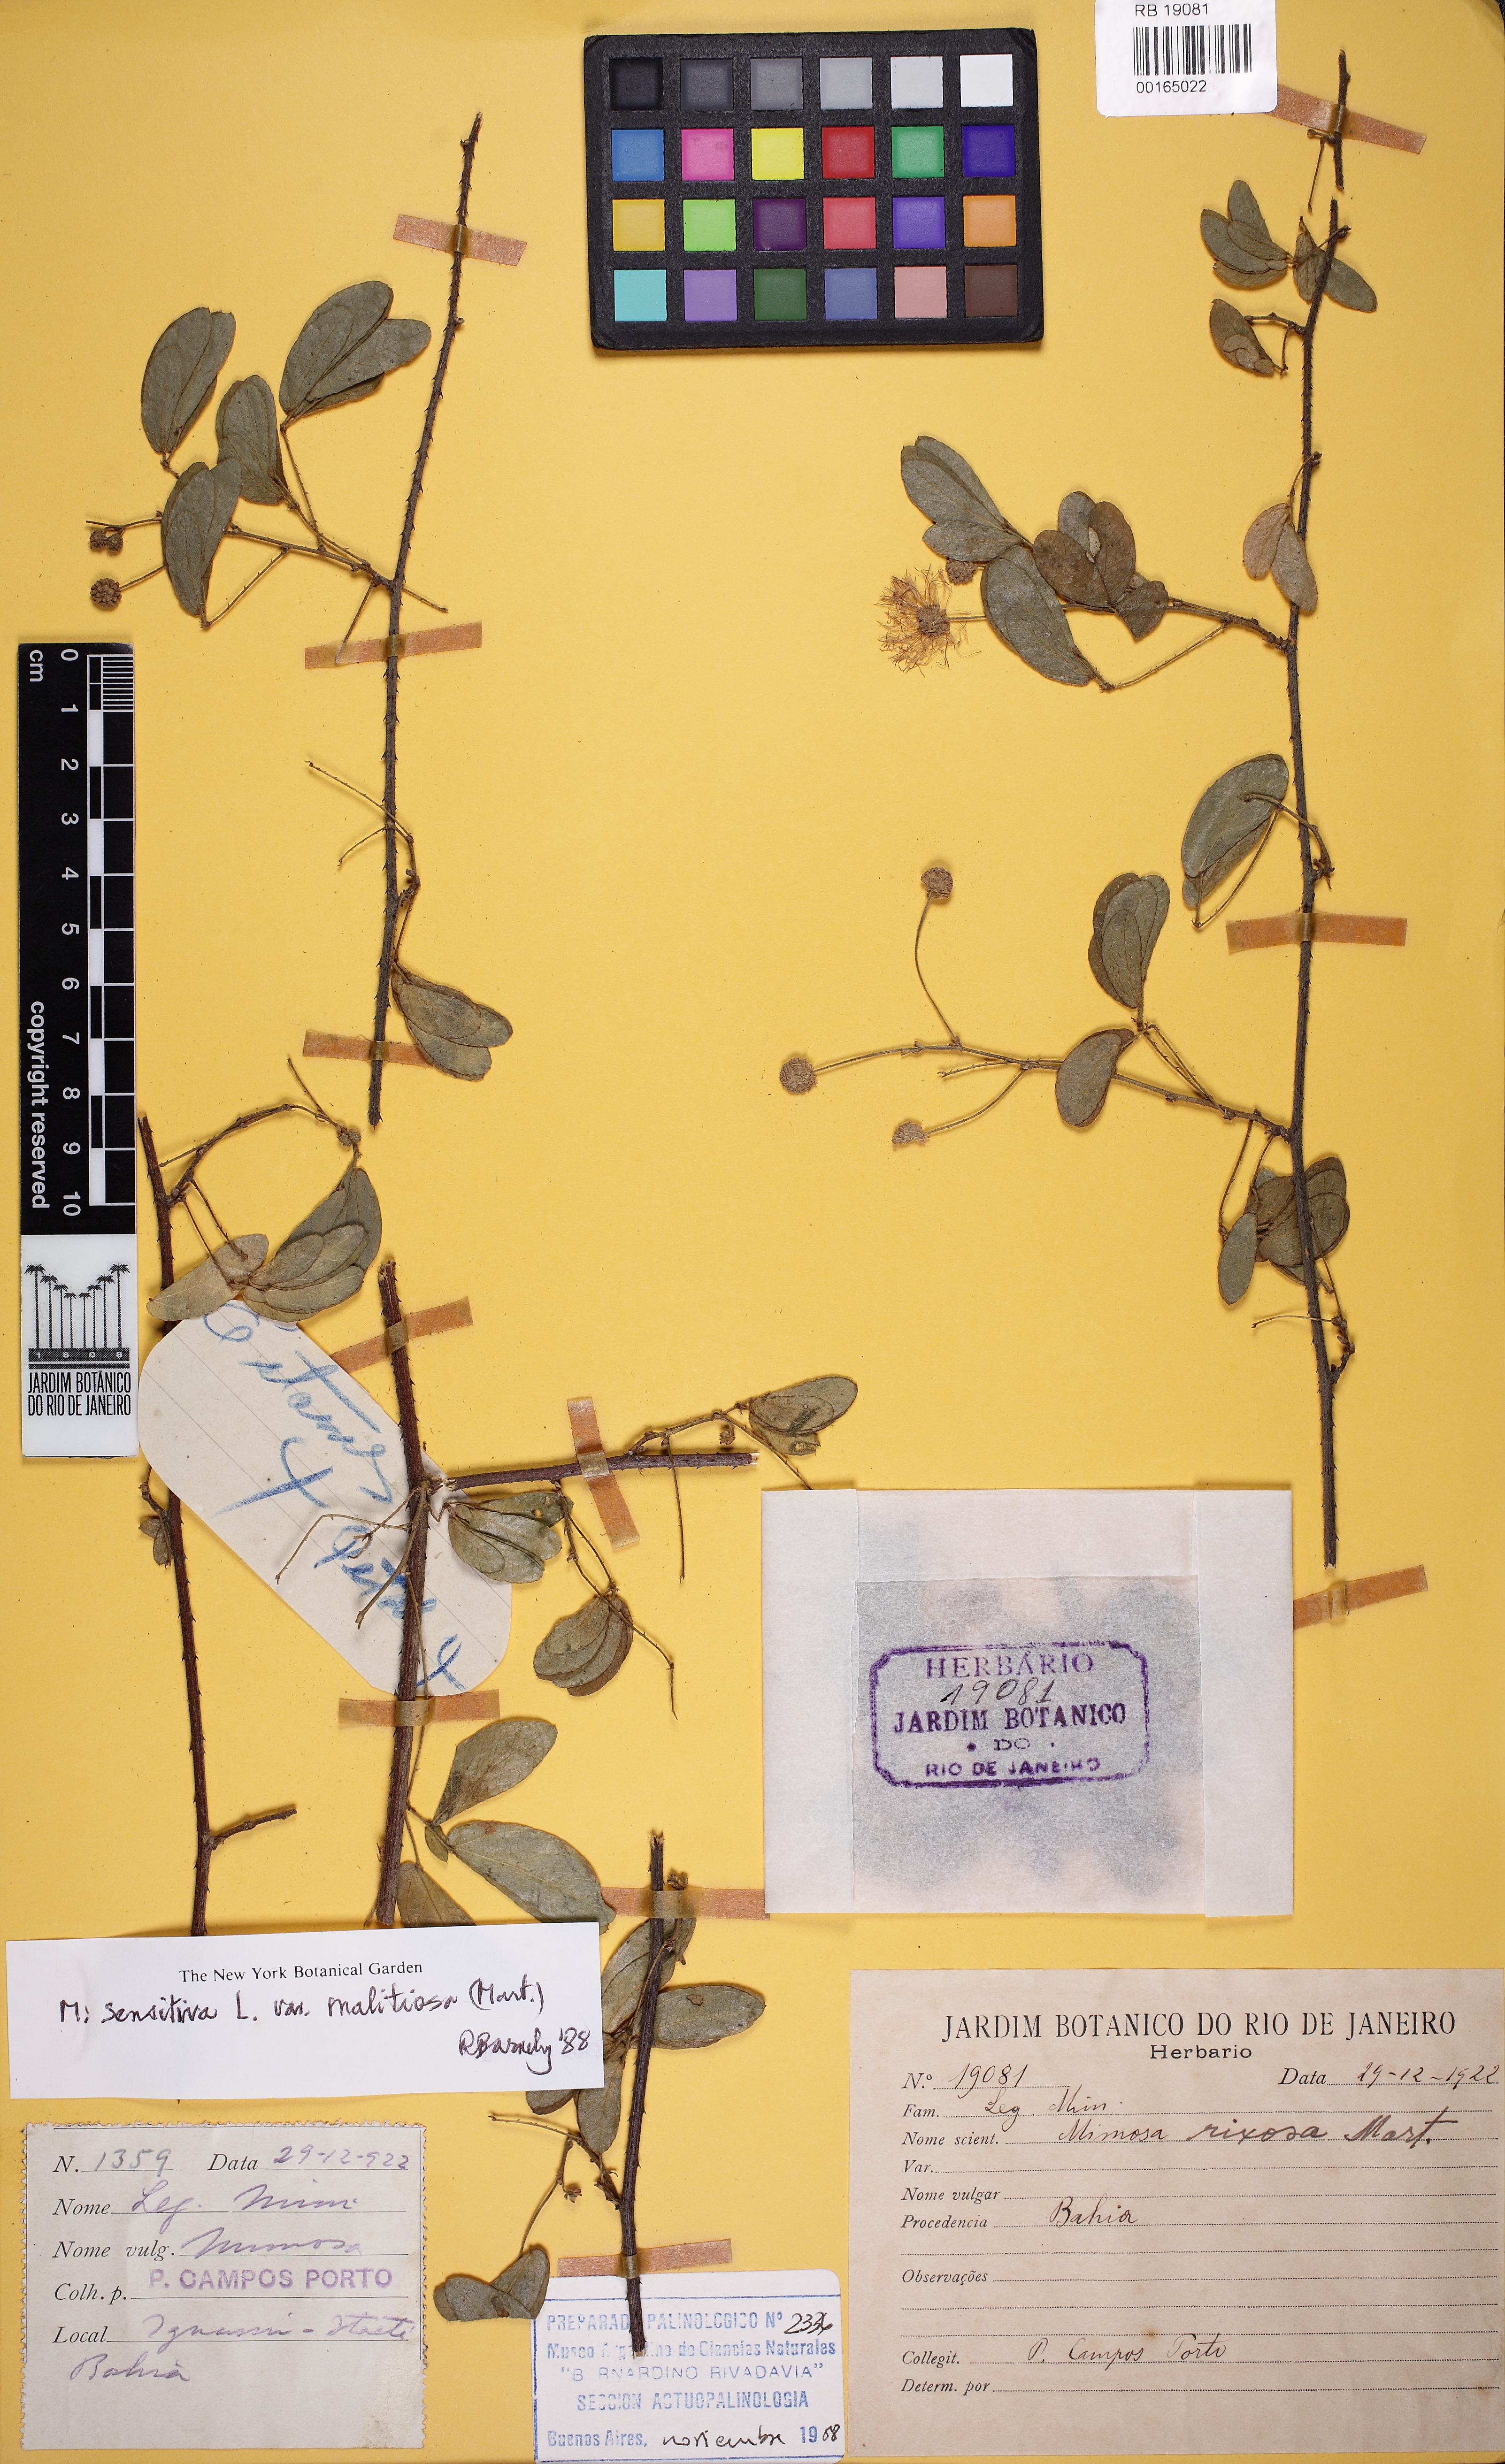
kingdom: Plantae
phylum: Tracheophyta
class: Magnoliopsida
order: Fabales
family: Fabaceae
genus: Mimosa
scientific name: Mimosa sensitiva
